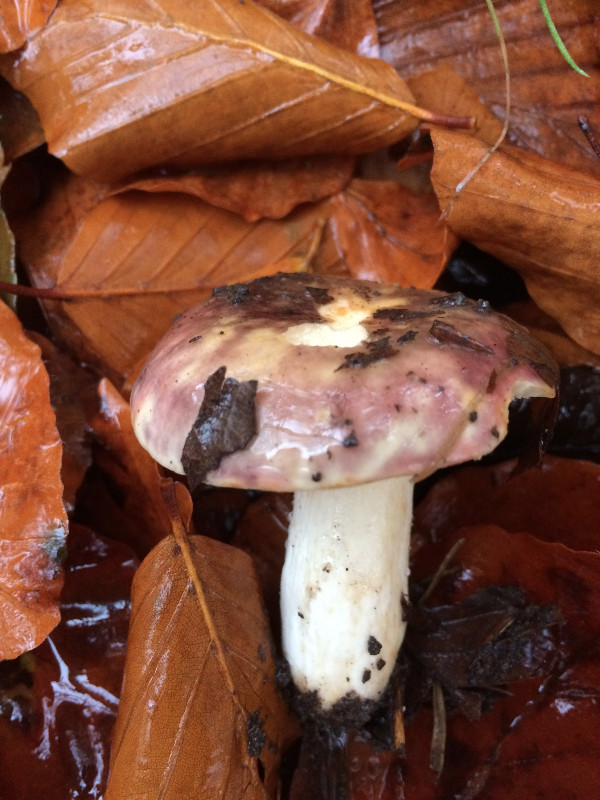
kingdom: Fungi
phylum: Basidiomycota
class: Agaricomycetes
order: Russulales
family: Russulaceae
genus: Russula
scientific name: Russula atropurpurea
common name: purpurbroget skørhat
